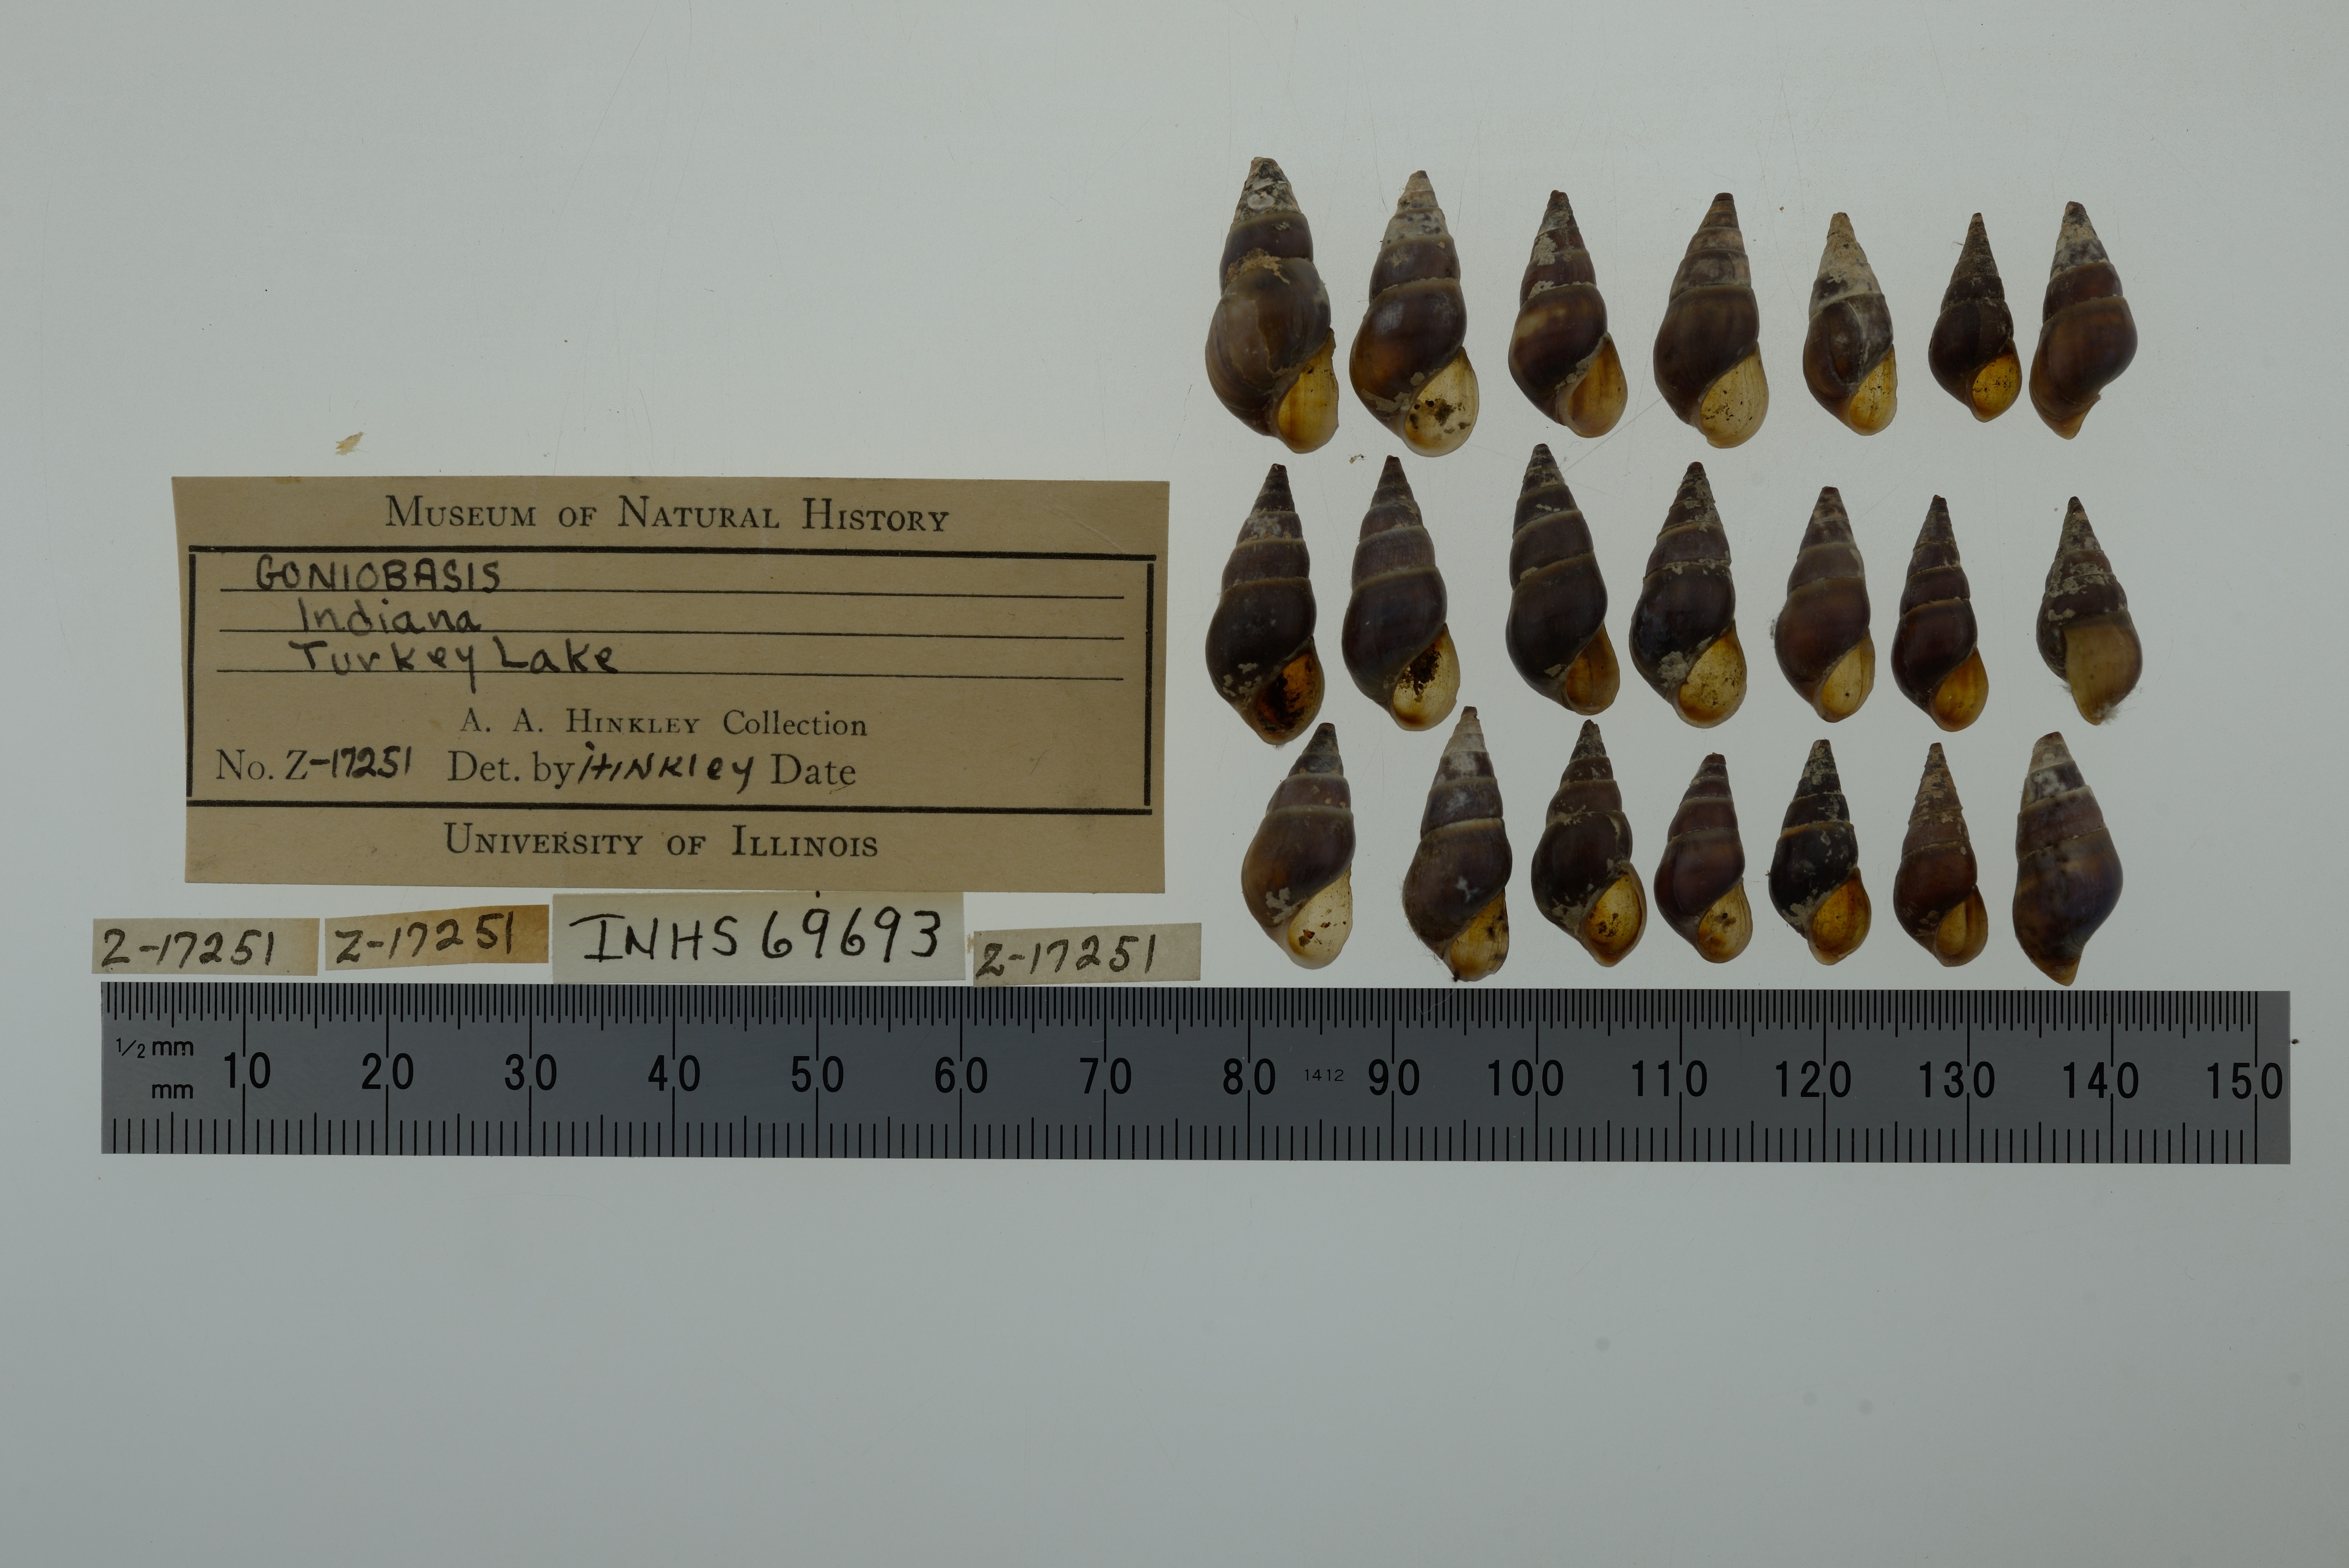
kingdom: Animalia
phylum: Mollusca
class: Gastropoda
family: Pleuroceridae
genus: Elimia
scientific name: Elimia
